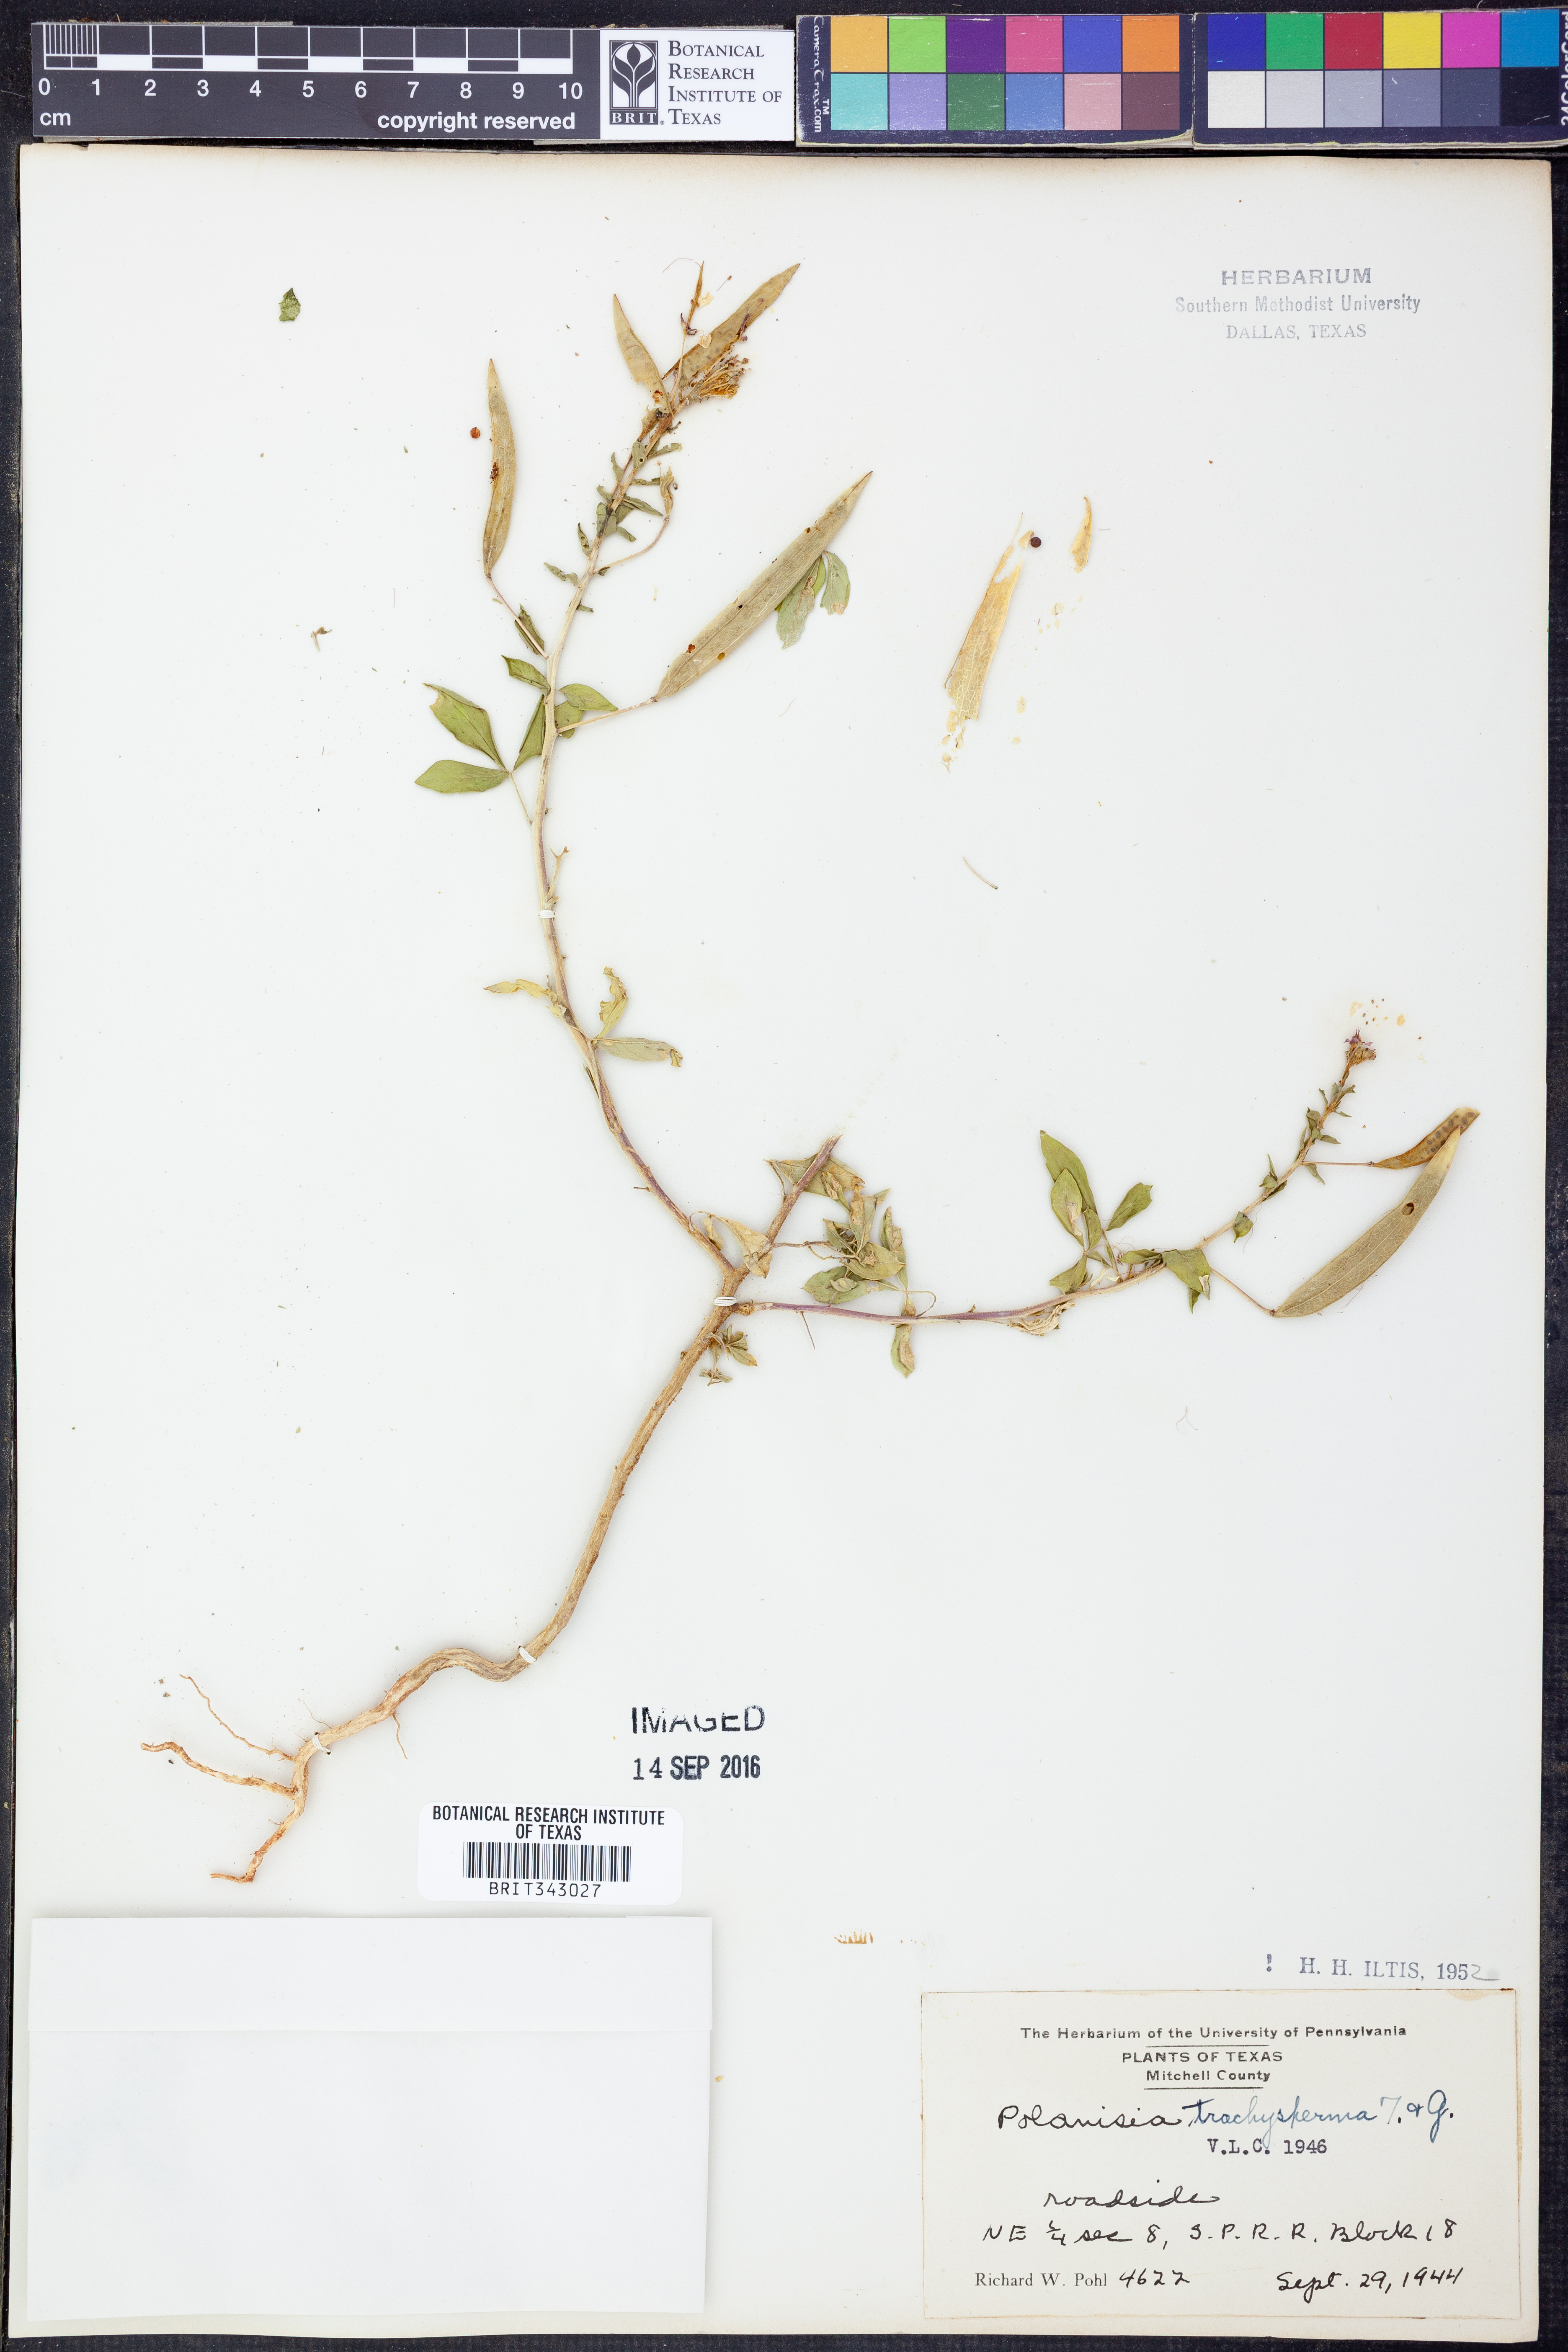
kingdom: Plantae
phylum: Tracheophyta
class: Magnoliopsida
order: Brassicales
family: Cleomaceae
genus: Polanisia
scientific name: Polanisia trachysperma
